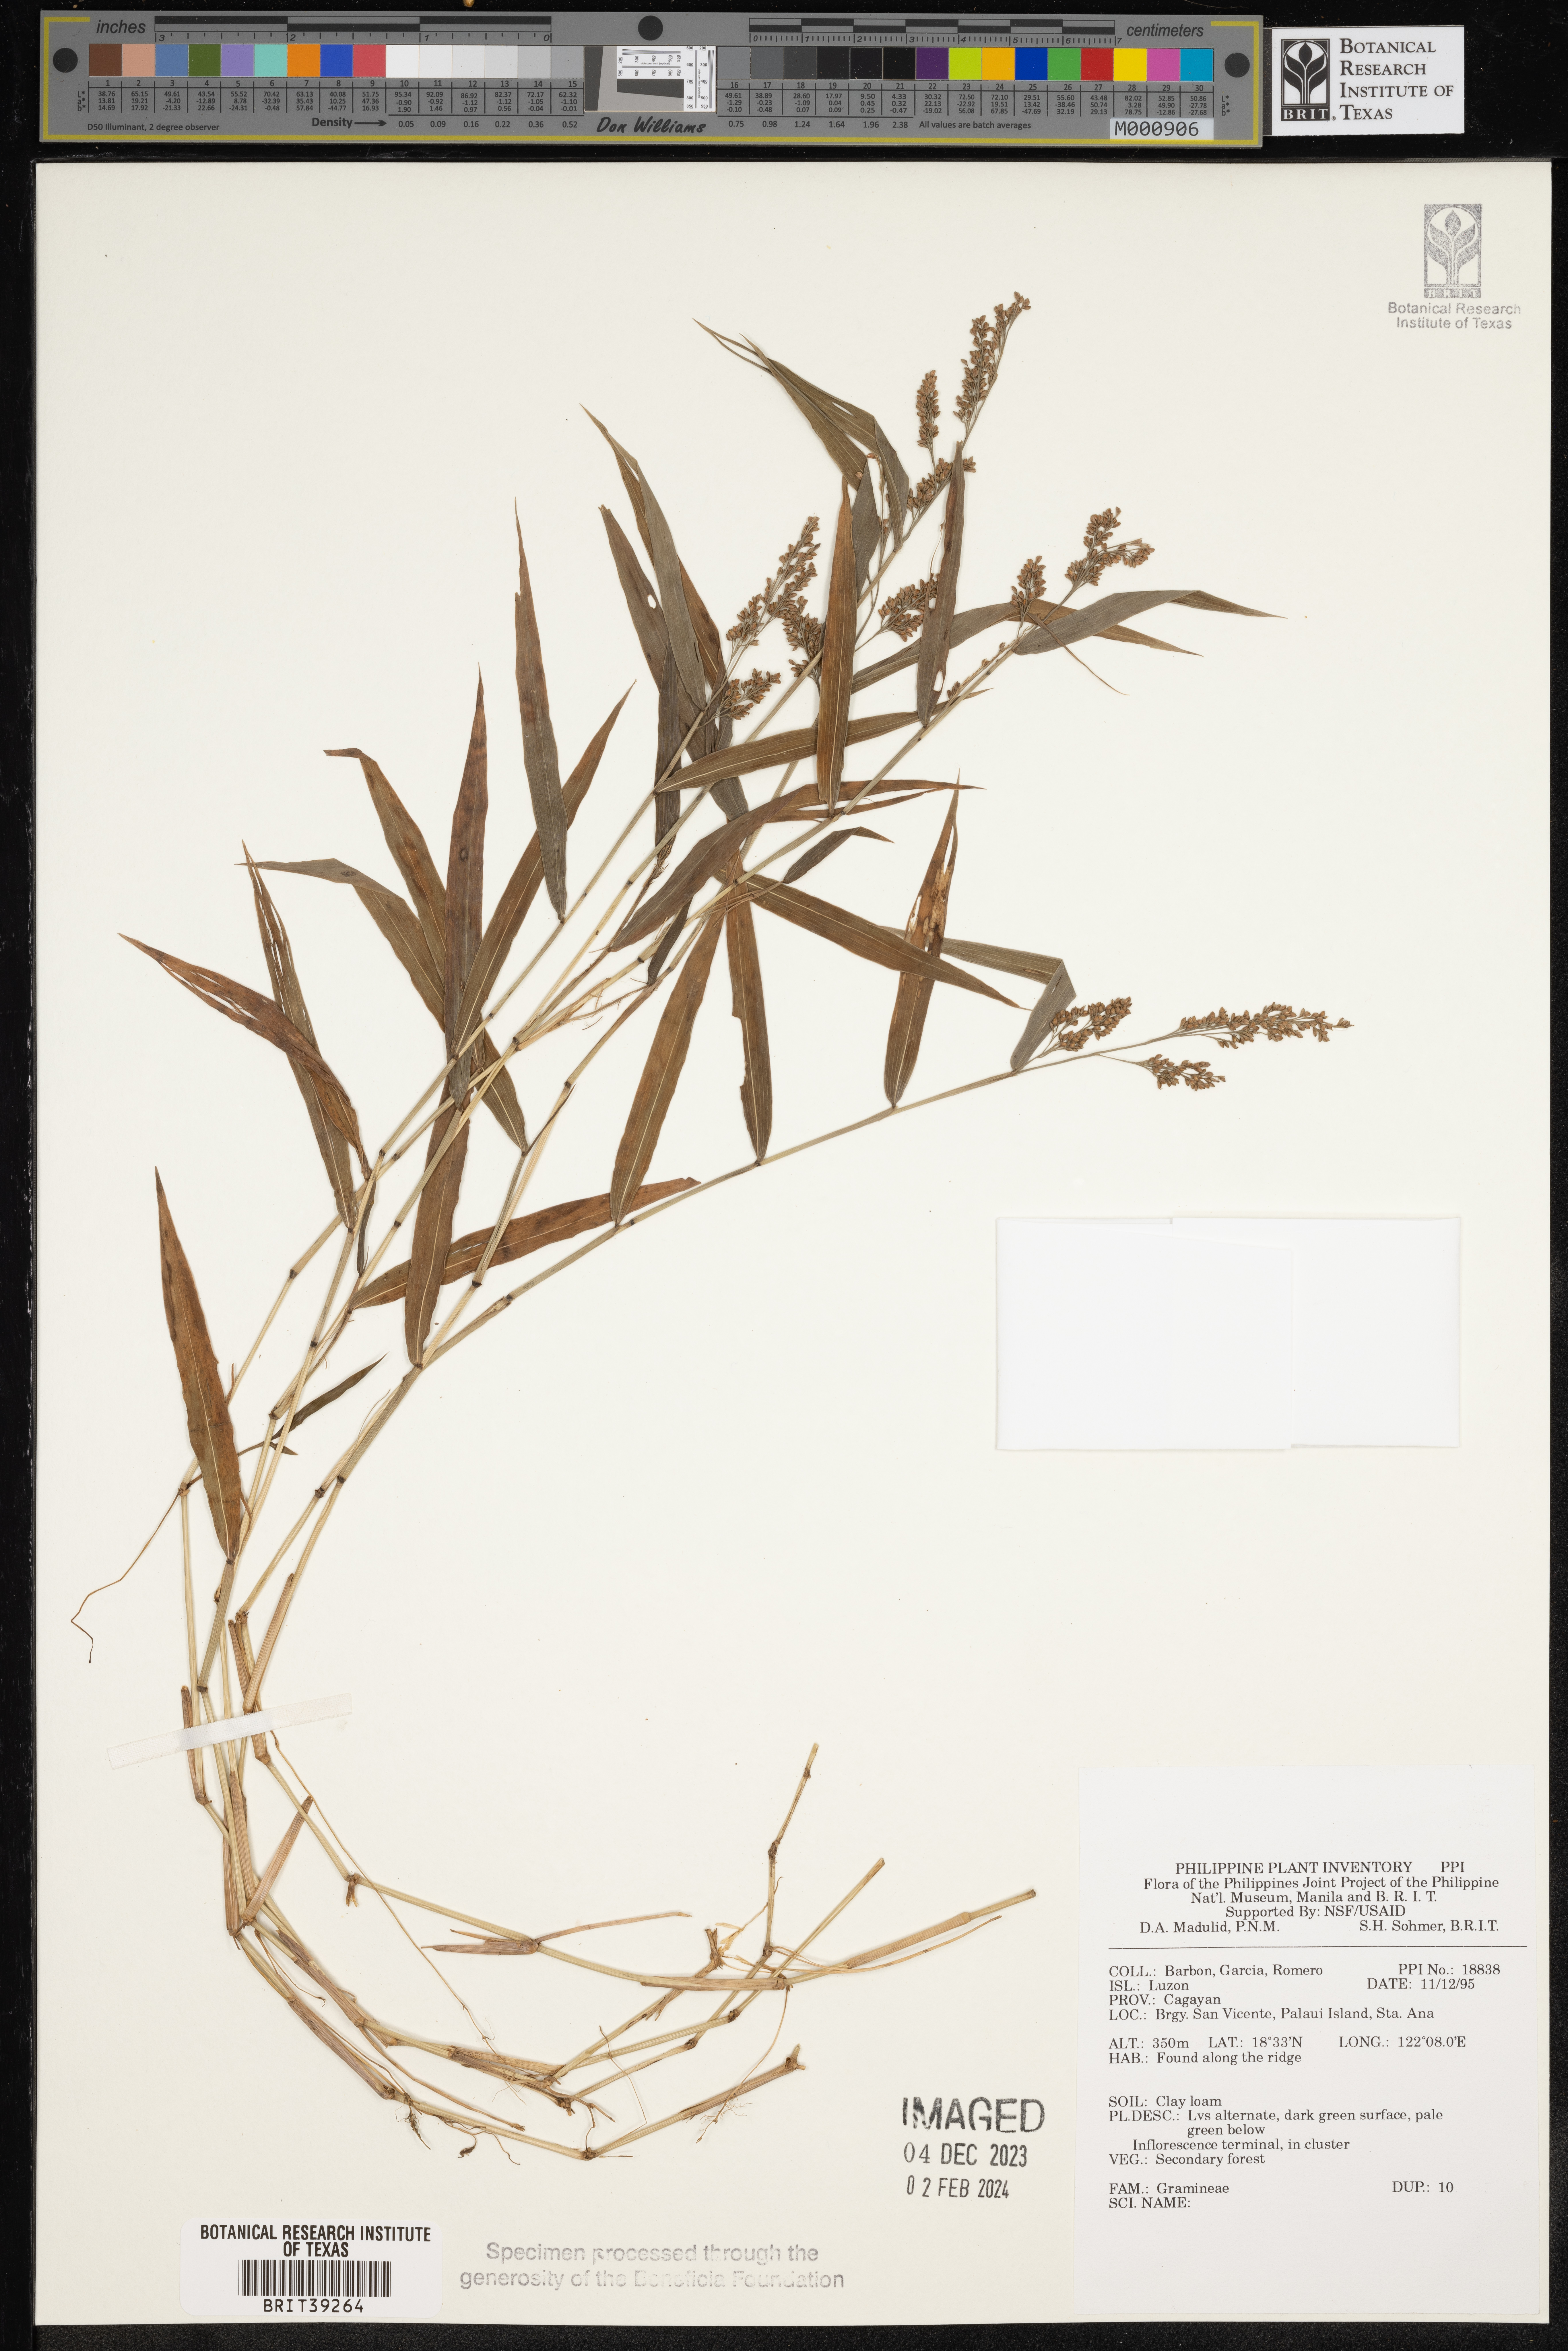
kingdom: Plantae
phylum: Tracheophyta
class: Liliopsida
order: Poales
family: Poaceae
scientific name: Poaceae
